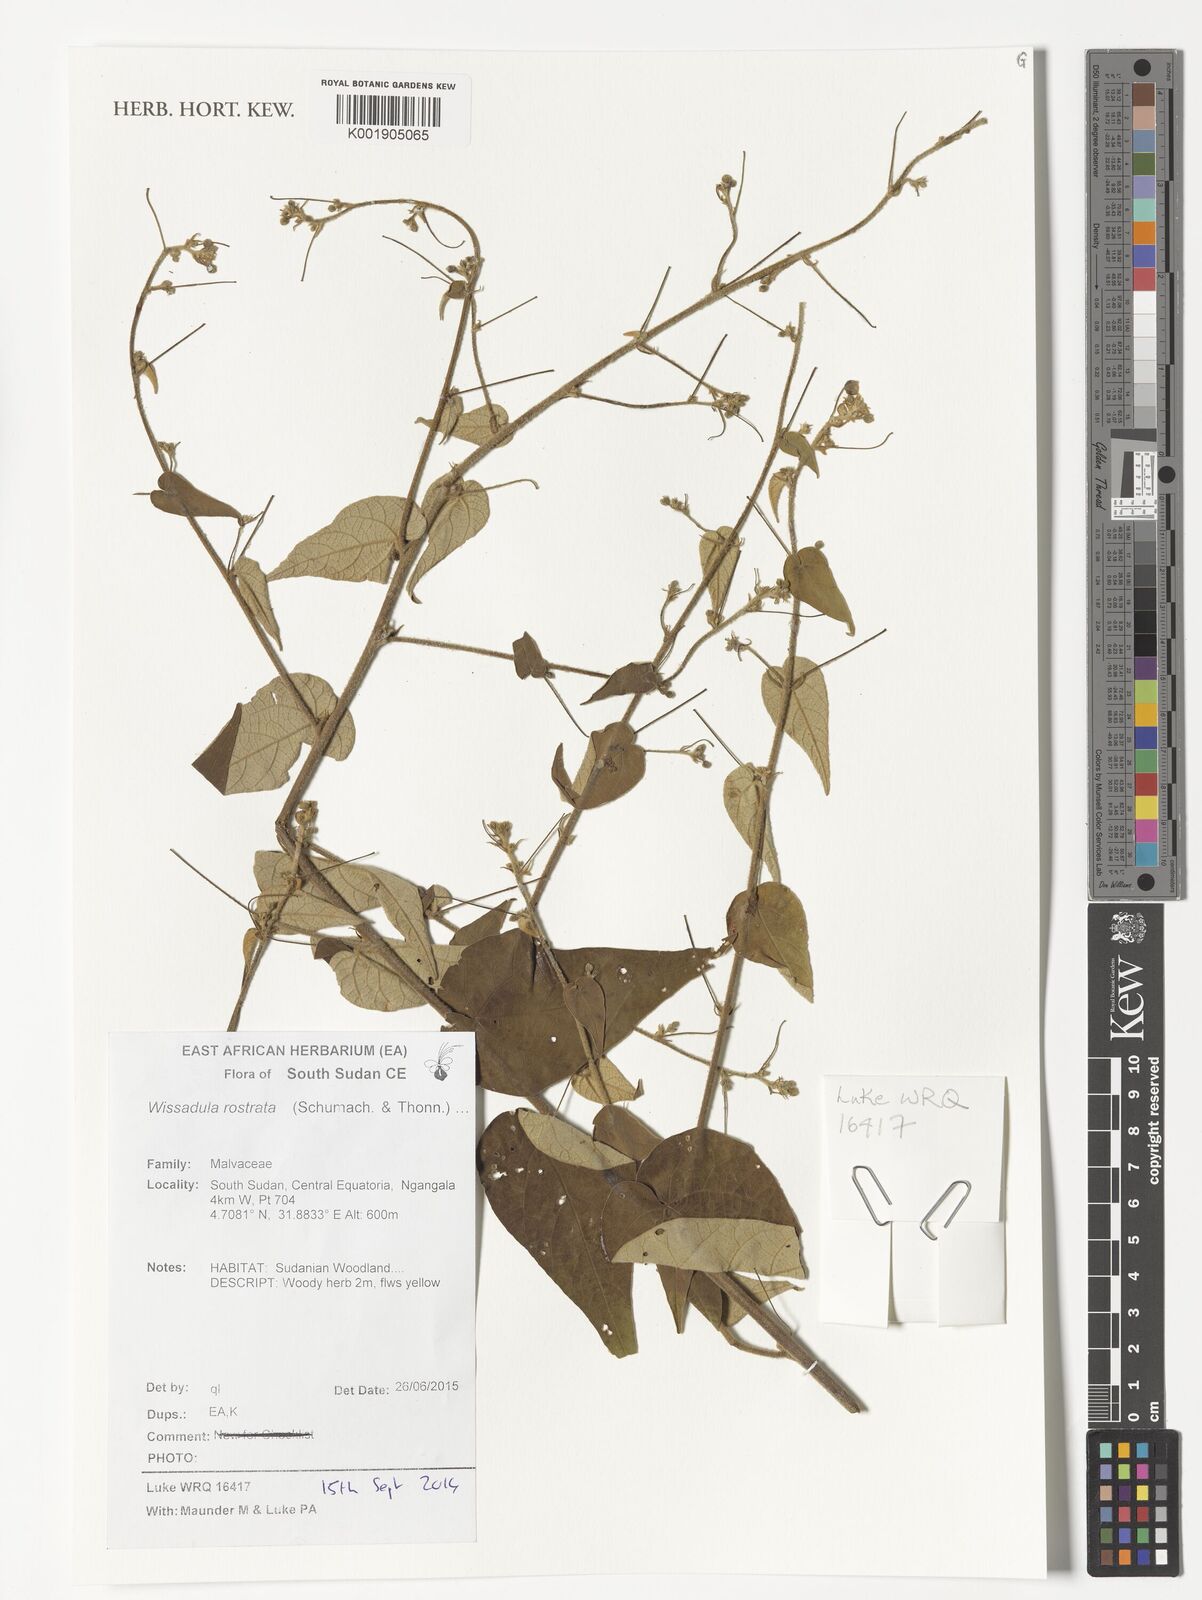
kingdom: Plantae
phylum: Tracheophyta
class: Magnoliopsida
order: Malvales
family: Malvaceae
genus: Wissadula
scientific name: Wissadula periplocifolia
